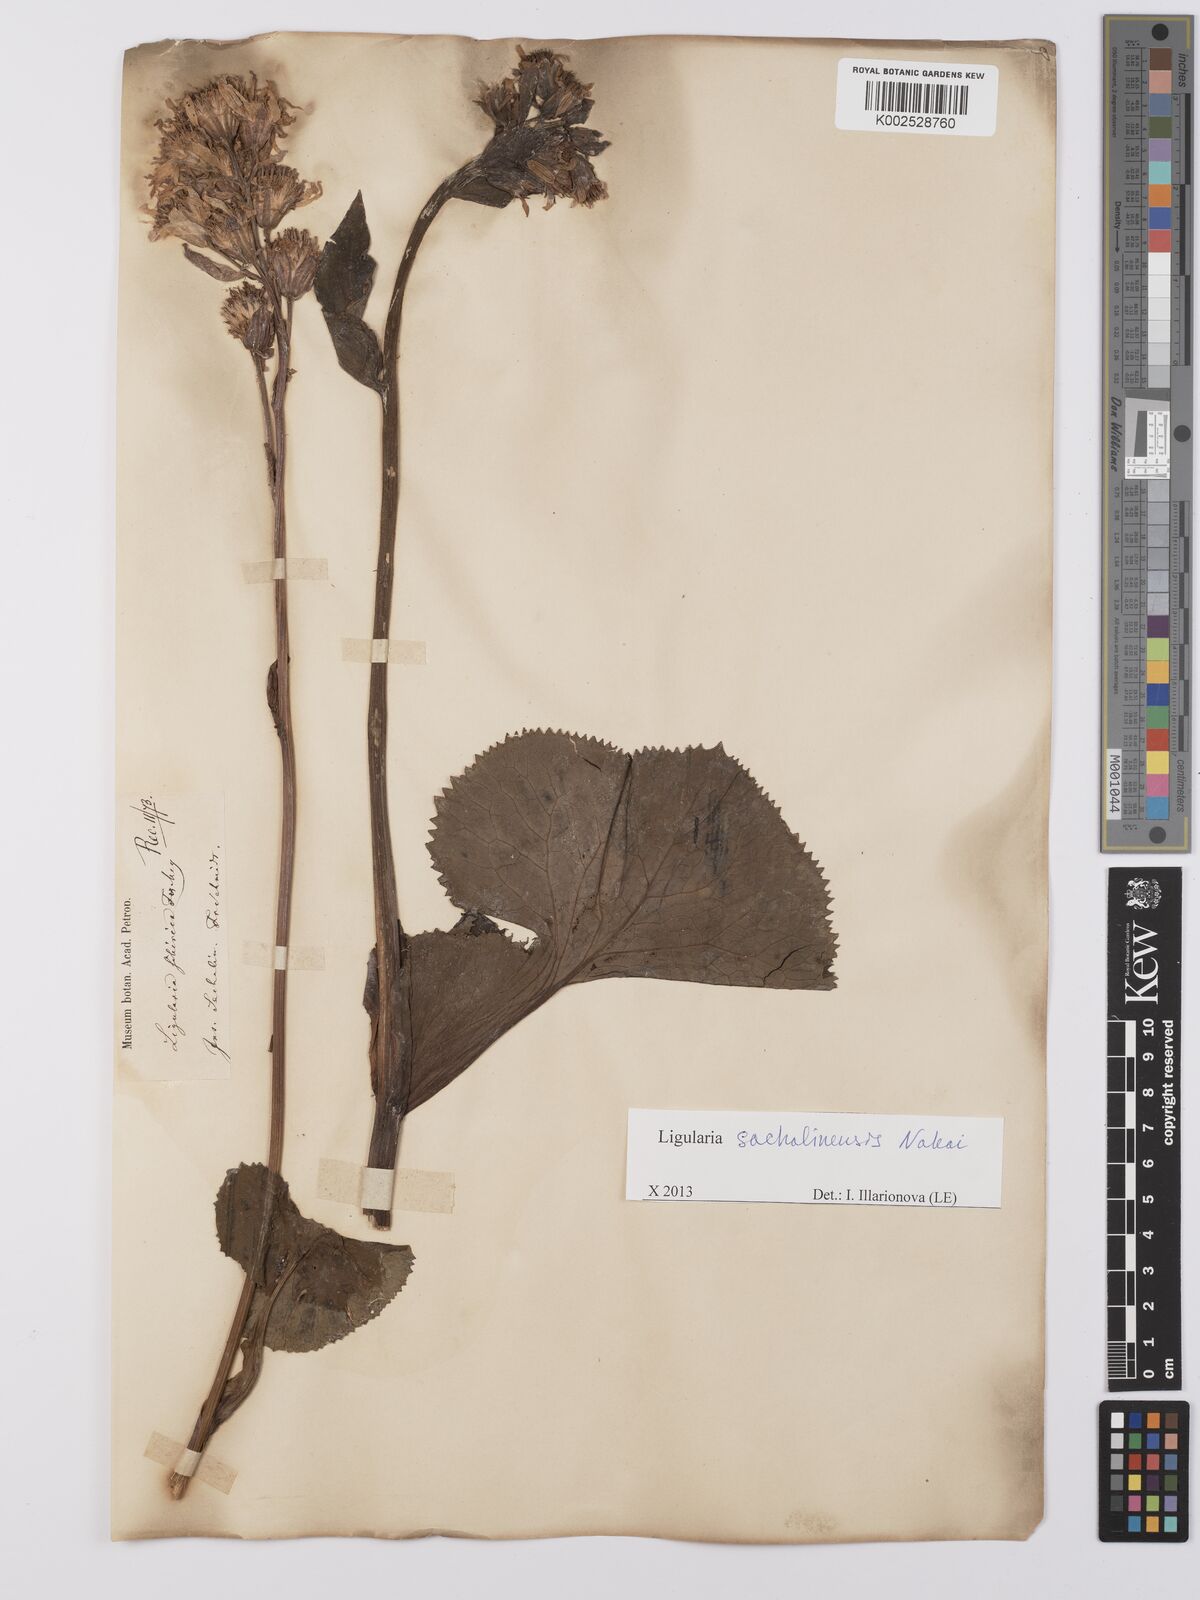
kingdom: Plantae
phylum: Tracheophyta
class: Magnoliopsida
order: Asterales
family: Asteraceae
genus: Ligularia
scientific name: Ligularia sachalinensis
